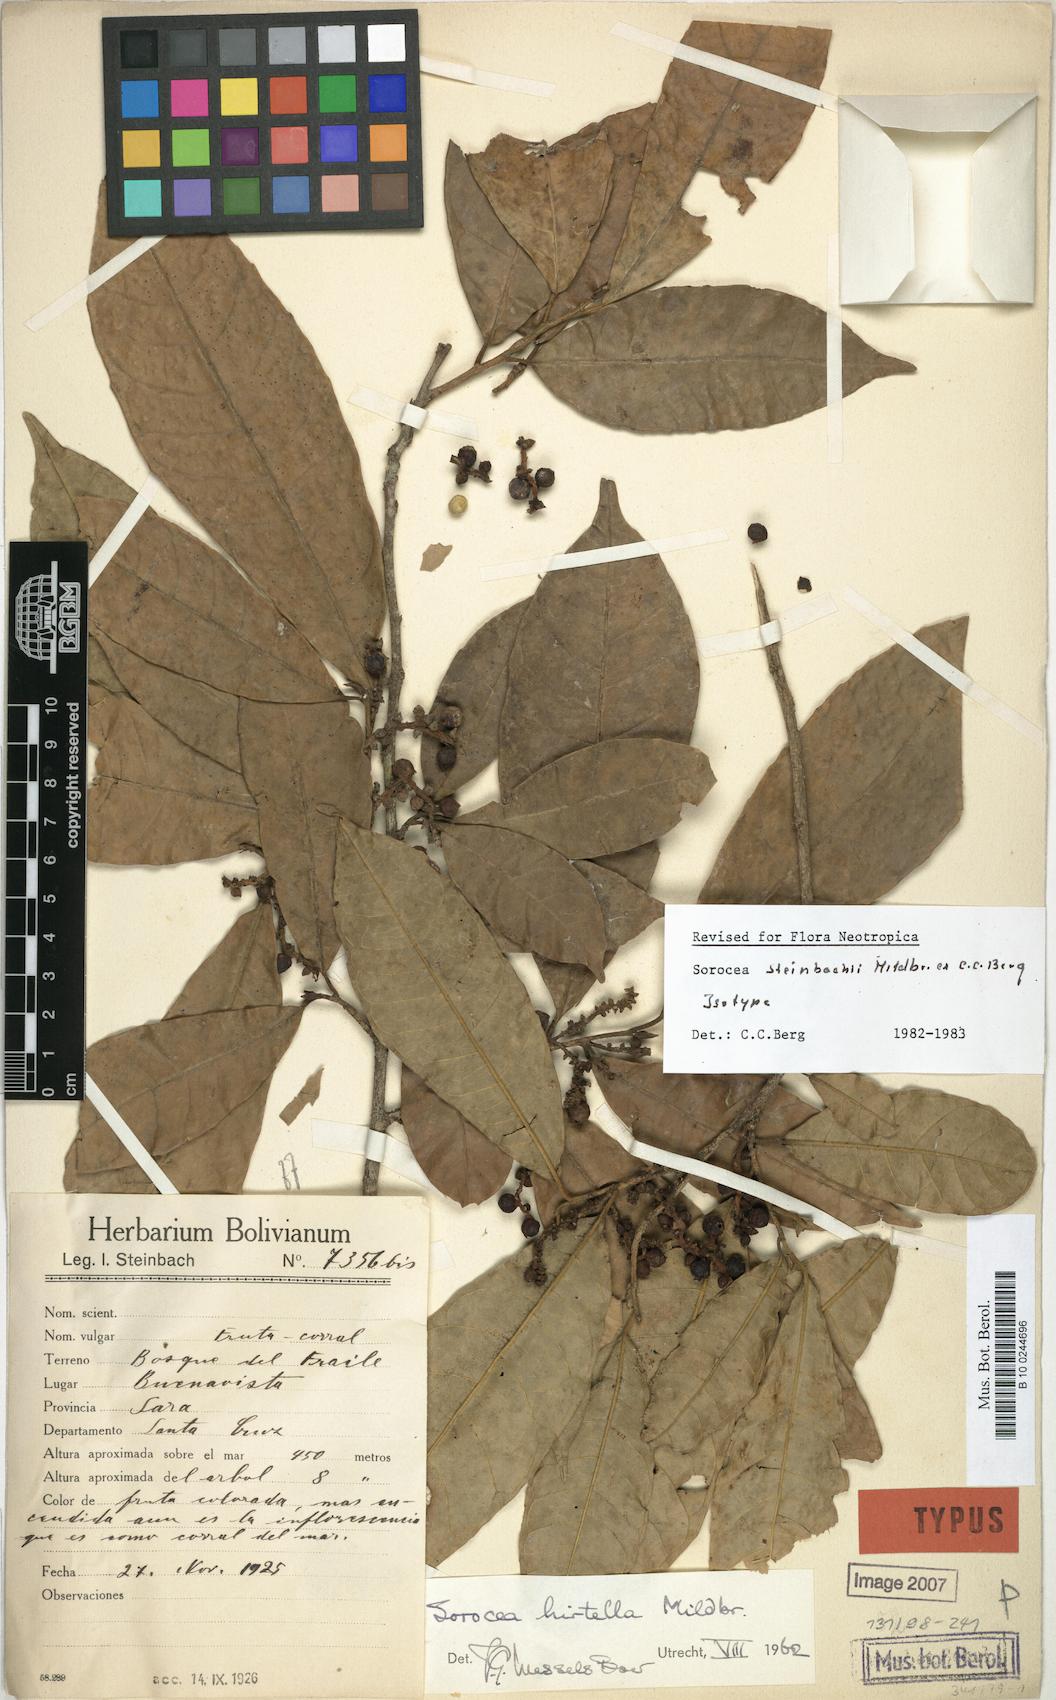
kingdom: Plantae
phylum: Tracheophyta
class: Magnoliopsida
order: Rosales
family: Moraceae
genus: Sorocea
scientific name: Sorocea steinbachii
